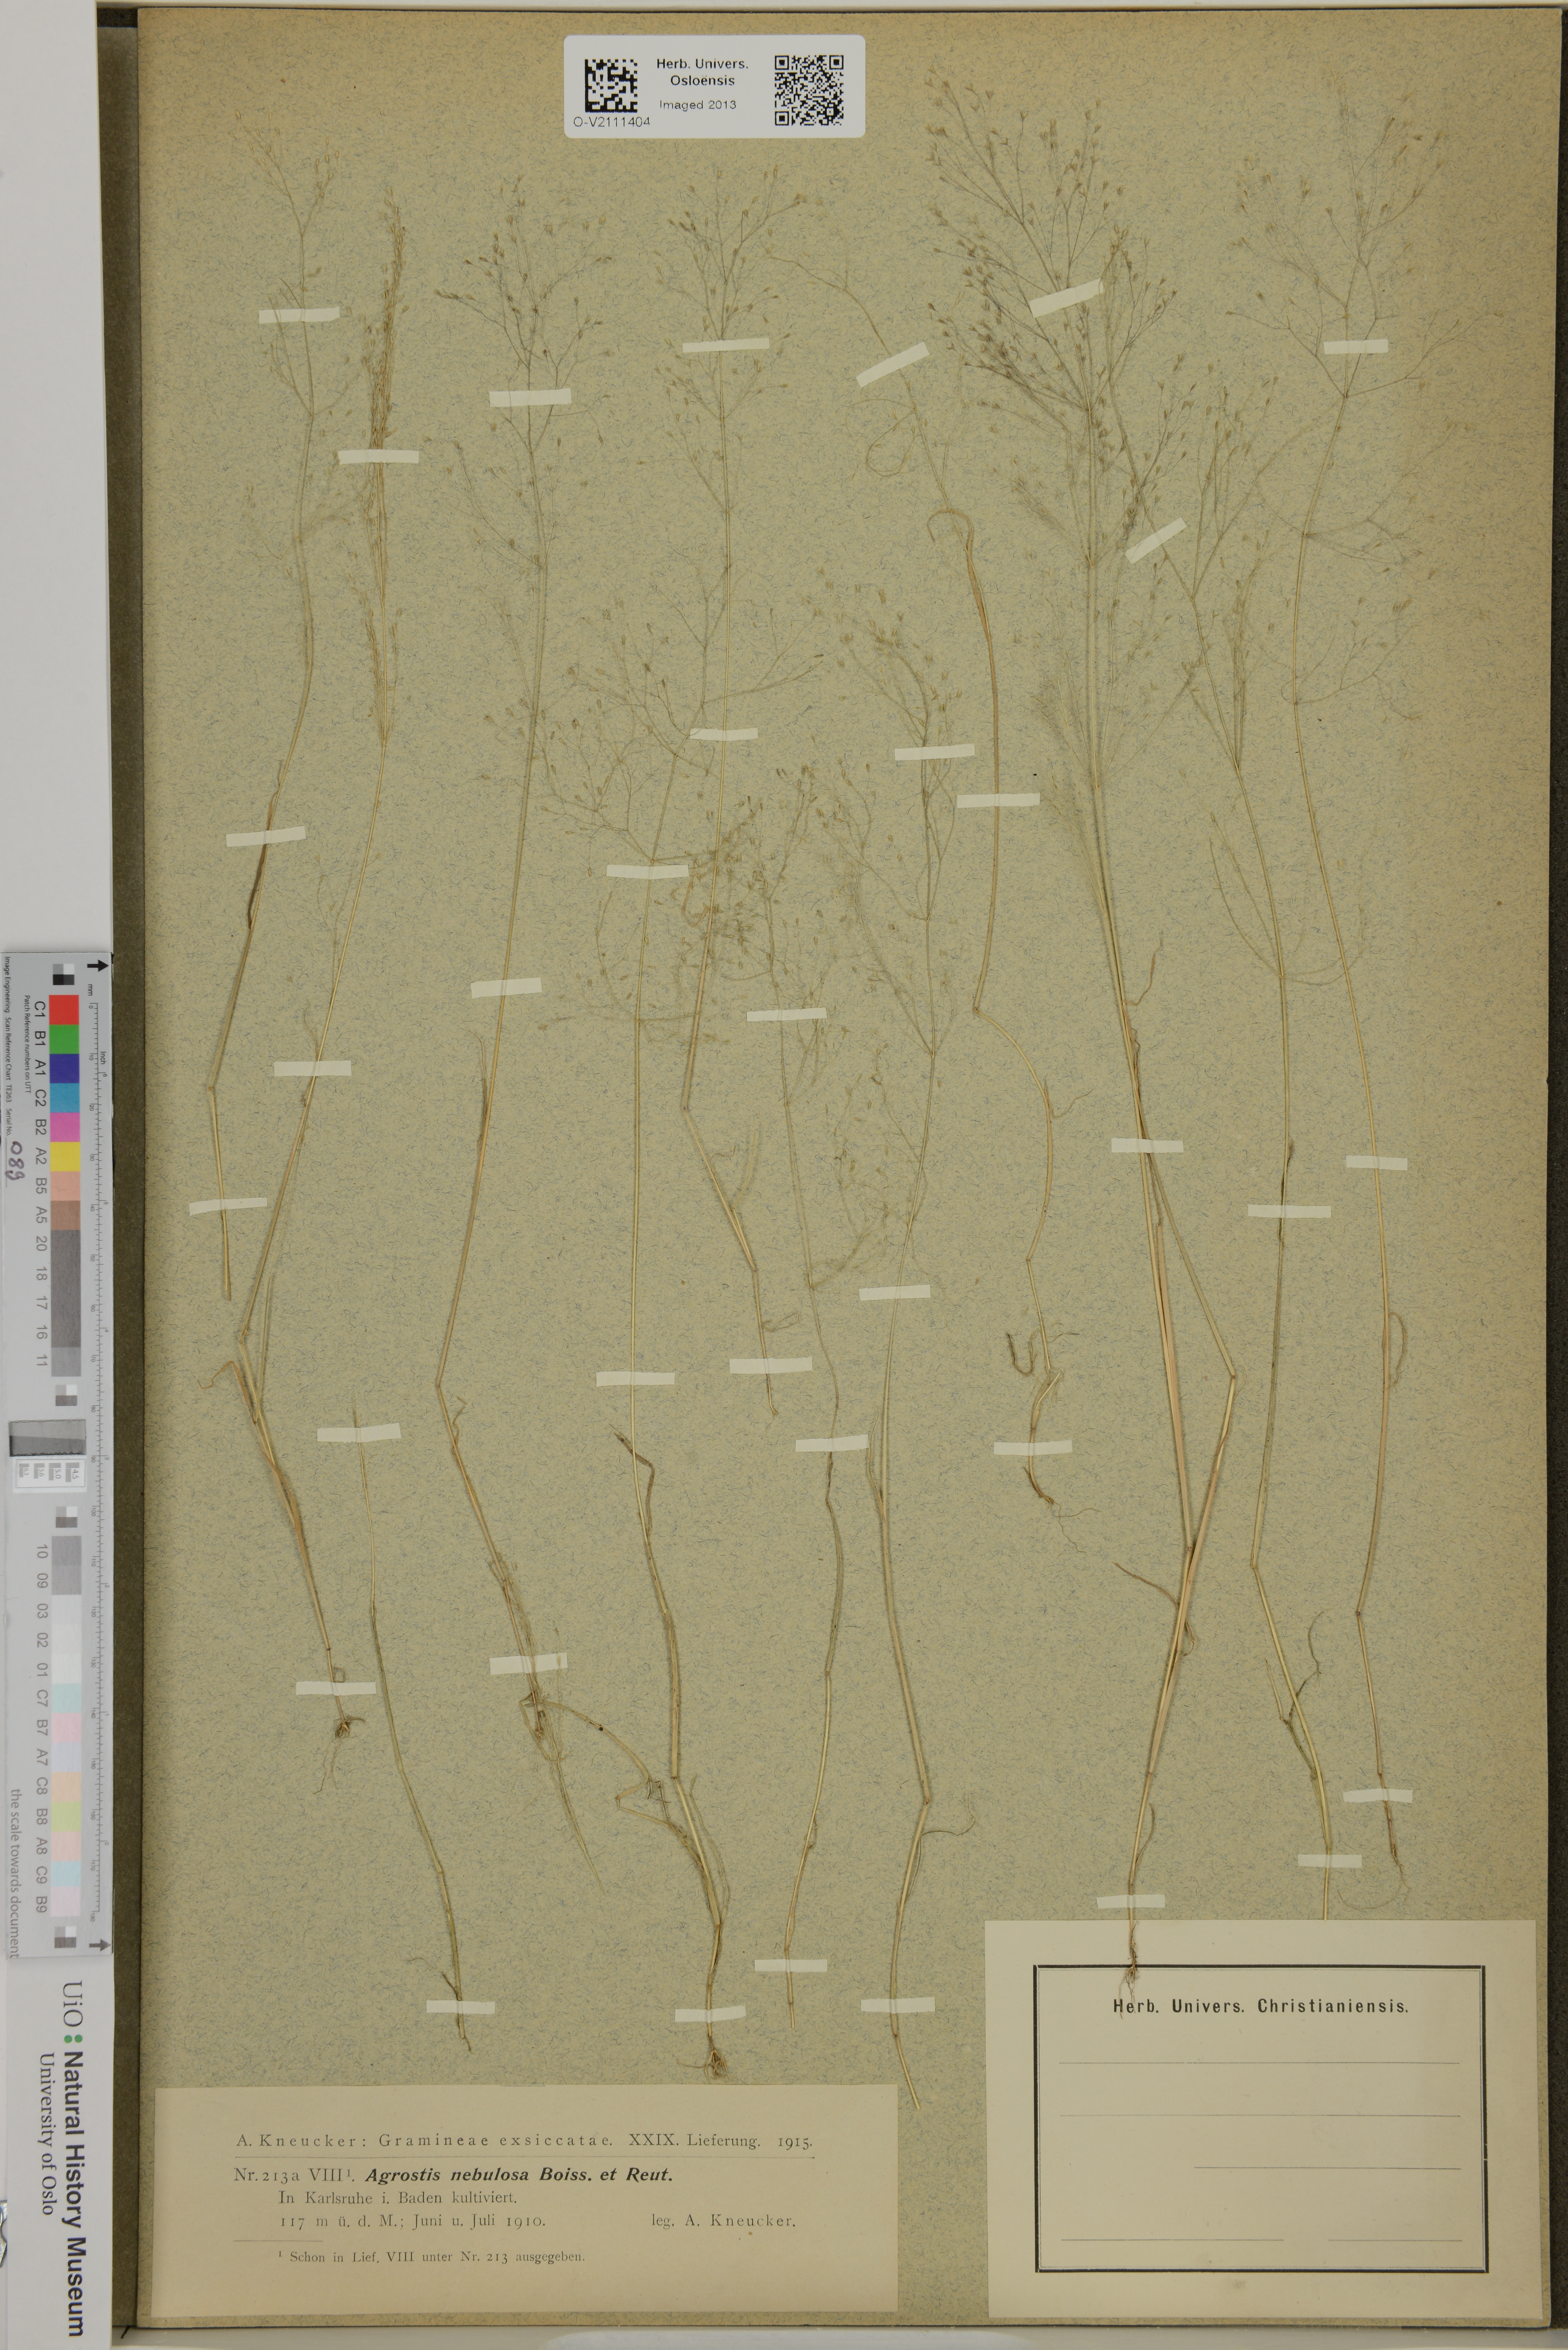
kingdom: Plantae
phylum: Tracheophyta
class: Liliopsida
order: Poales
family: Poaceae
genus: Agrostis
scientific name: Agrostis nebulosa
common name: Cloud grass
